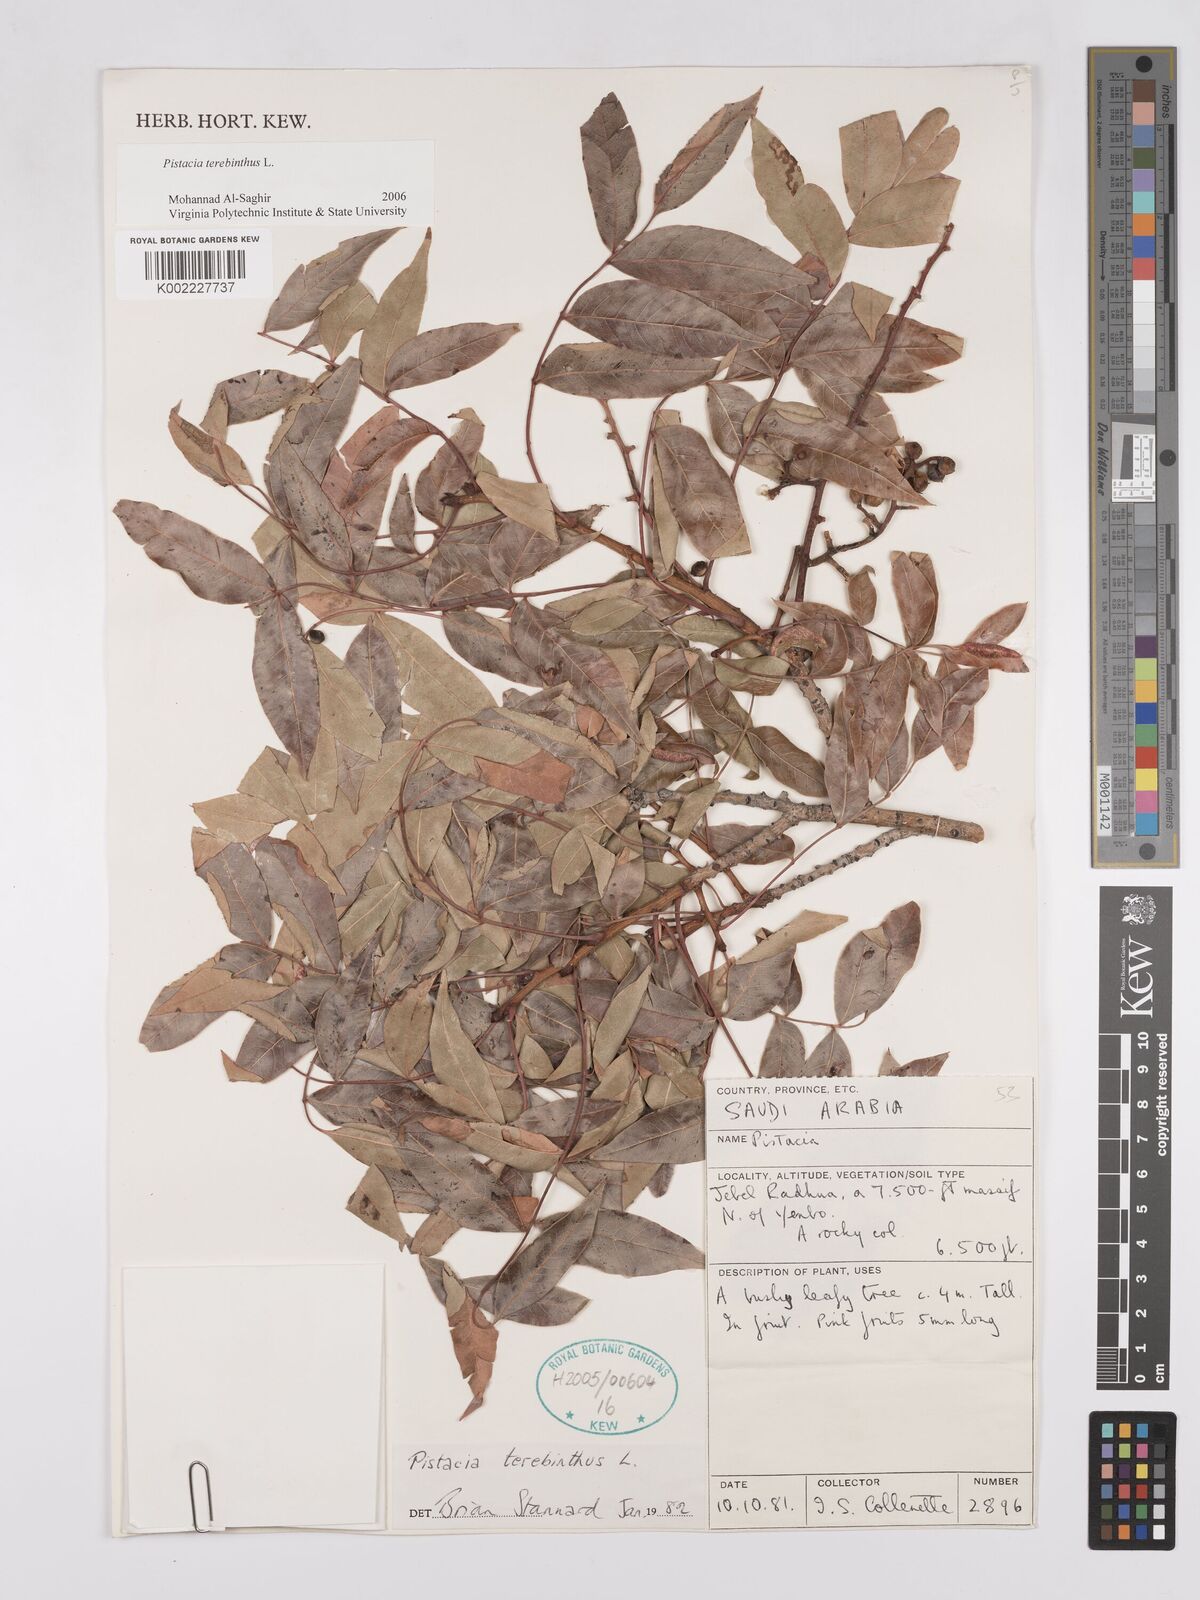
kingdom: Plantae
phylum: Tracheophyta
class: Magnoliopsida
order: Sapindales
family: Anacardiaceae
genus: Pistacia
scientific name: Pistacia terebinthus
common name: Terebinth
